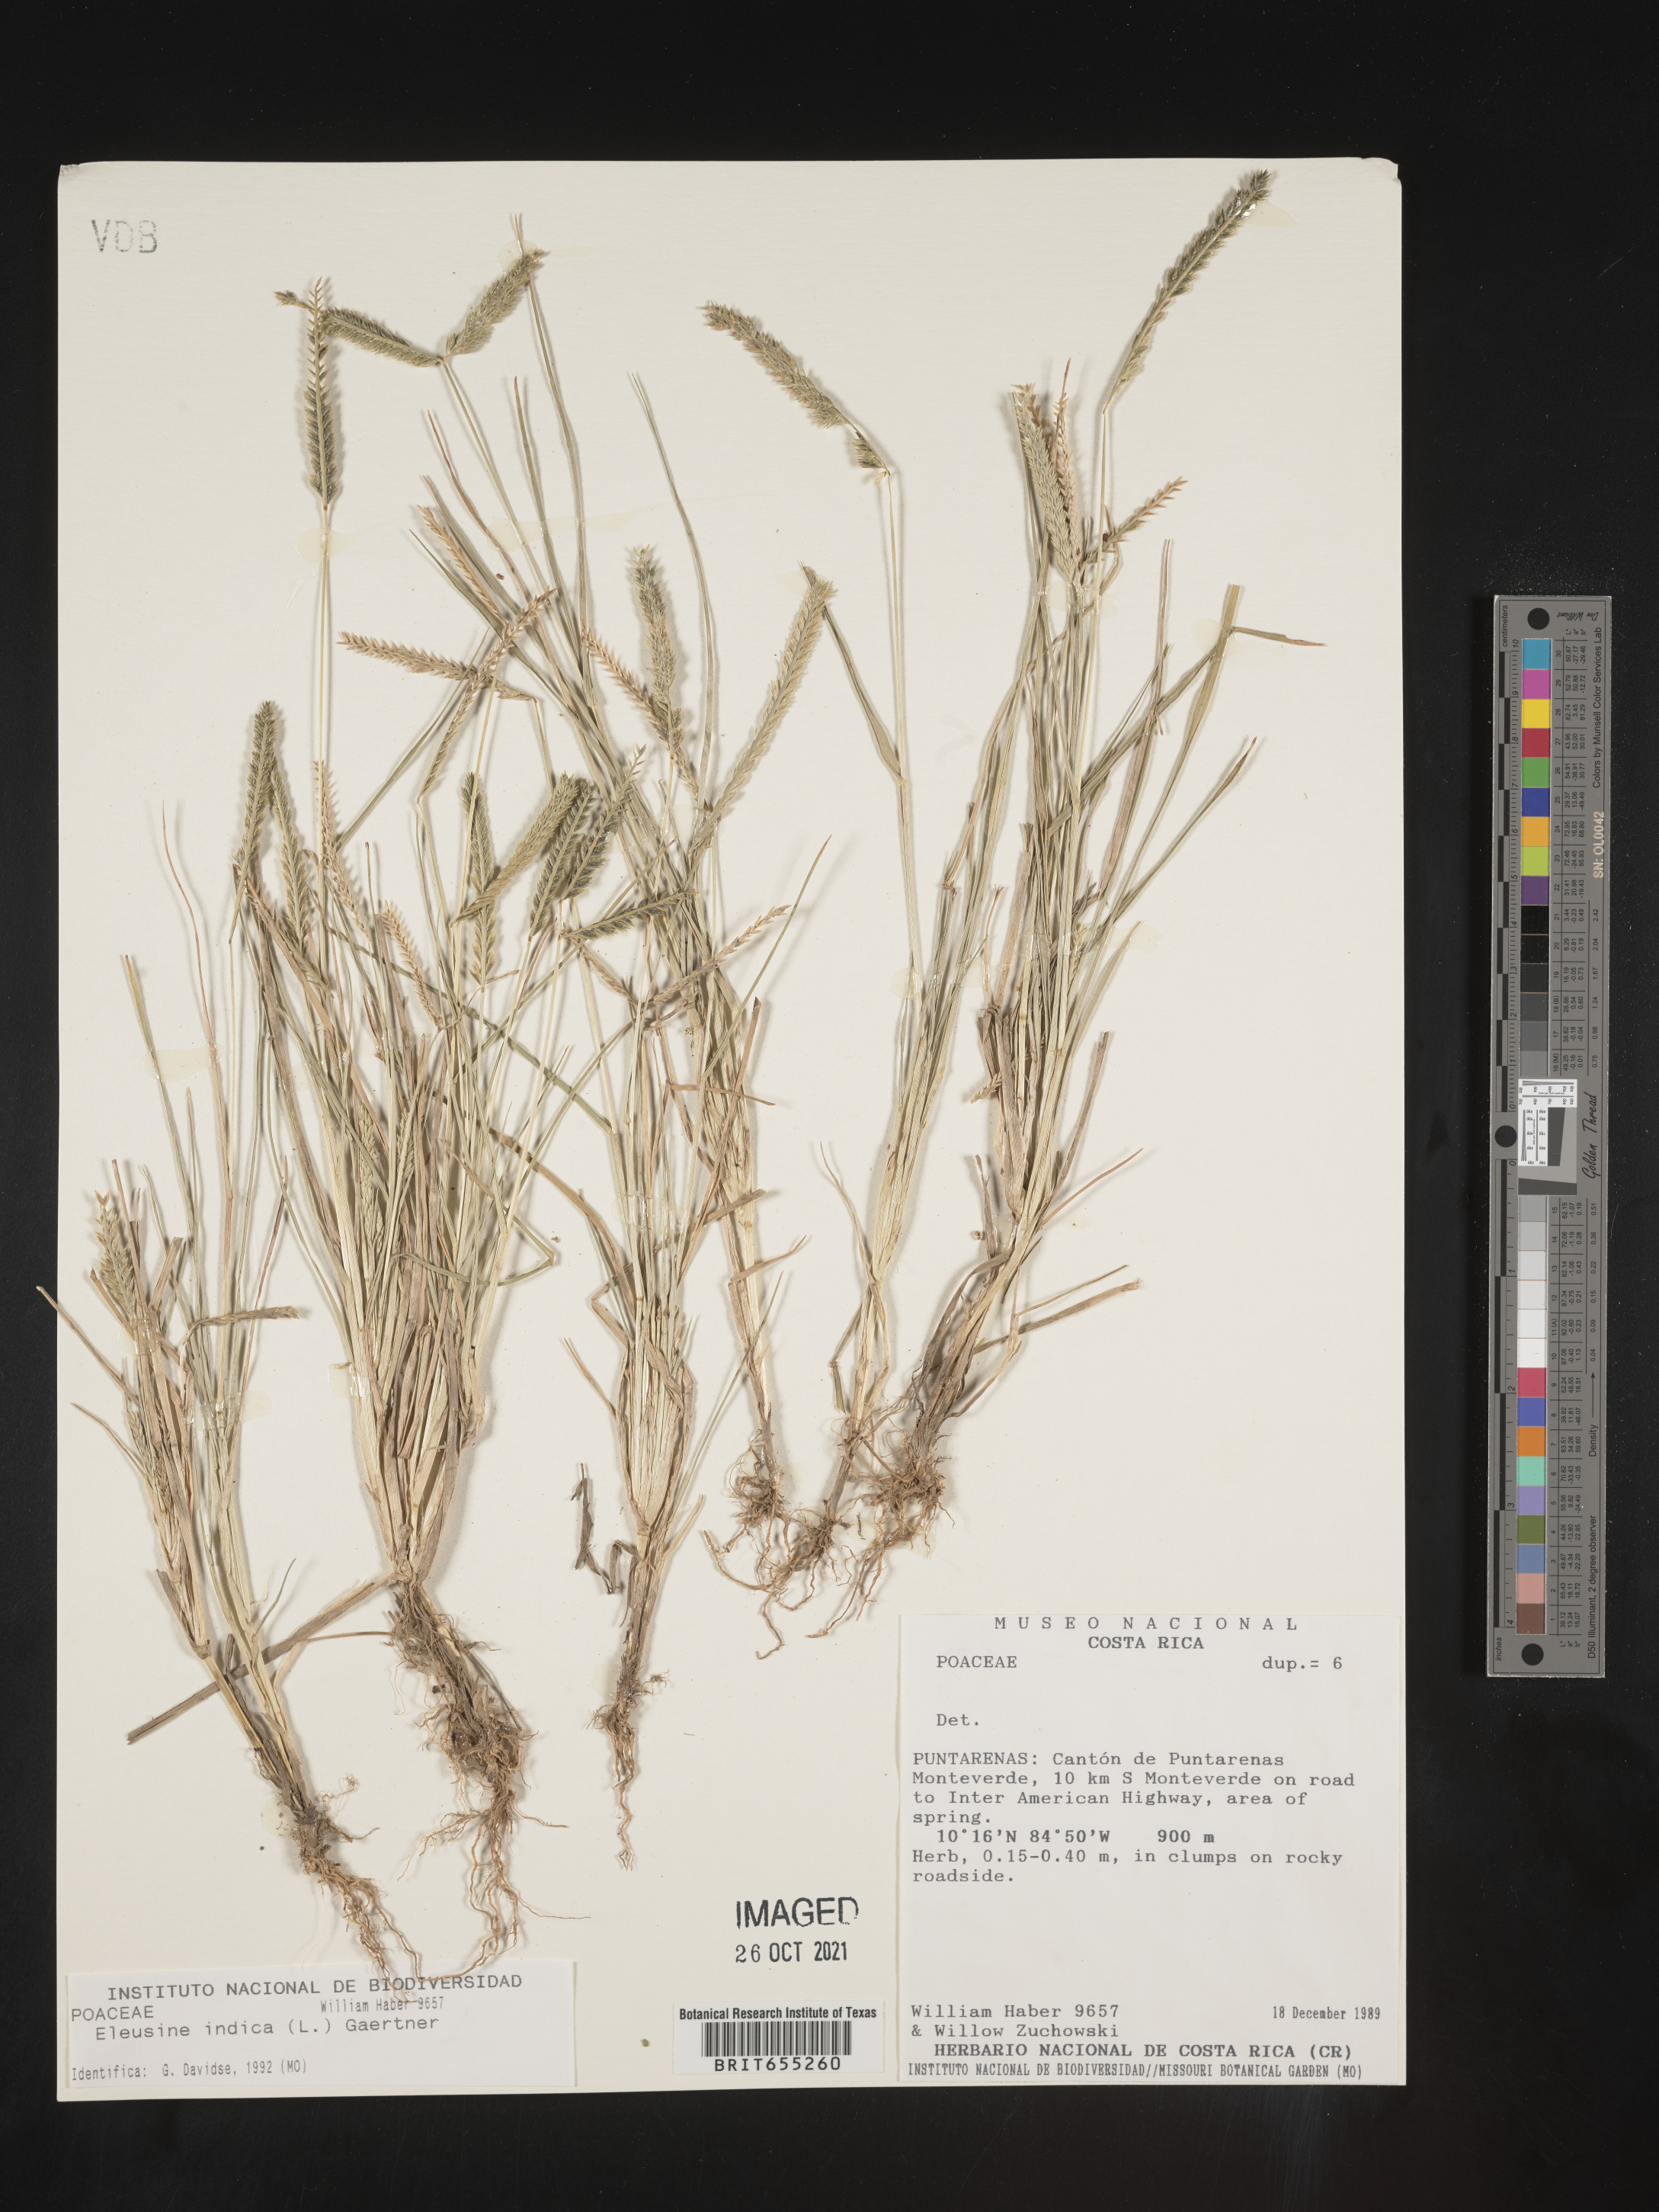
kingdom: Plantae
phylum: Tracheophyta
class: Liliopsida
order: Poales
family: Poaceae
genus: Eleusine
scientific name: Eleusine
